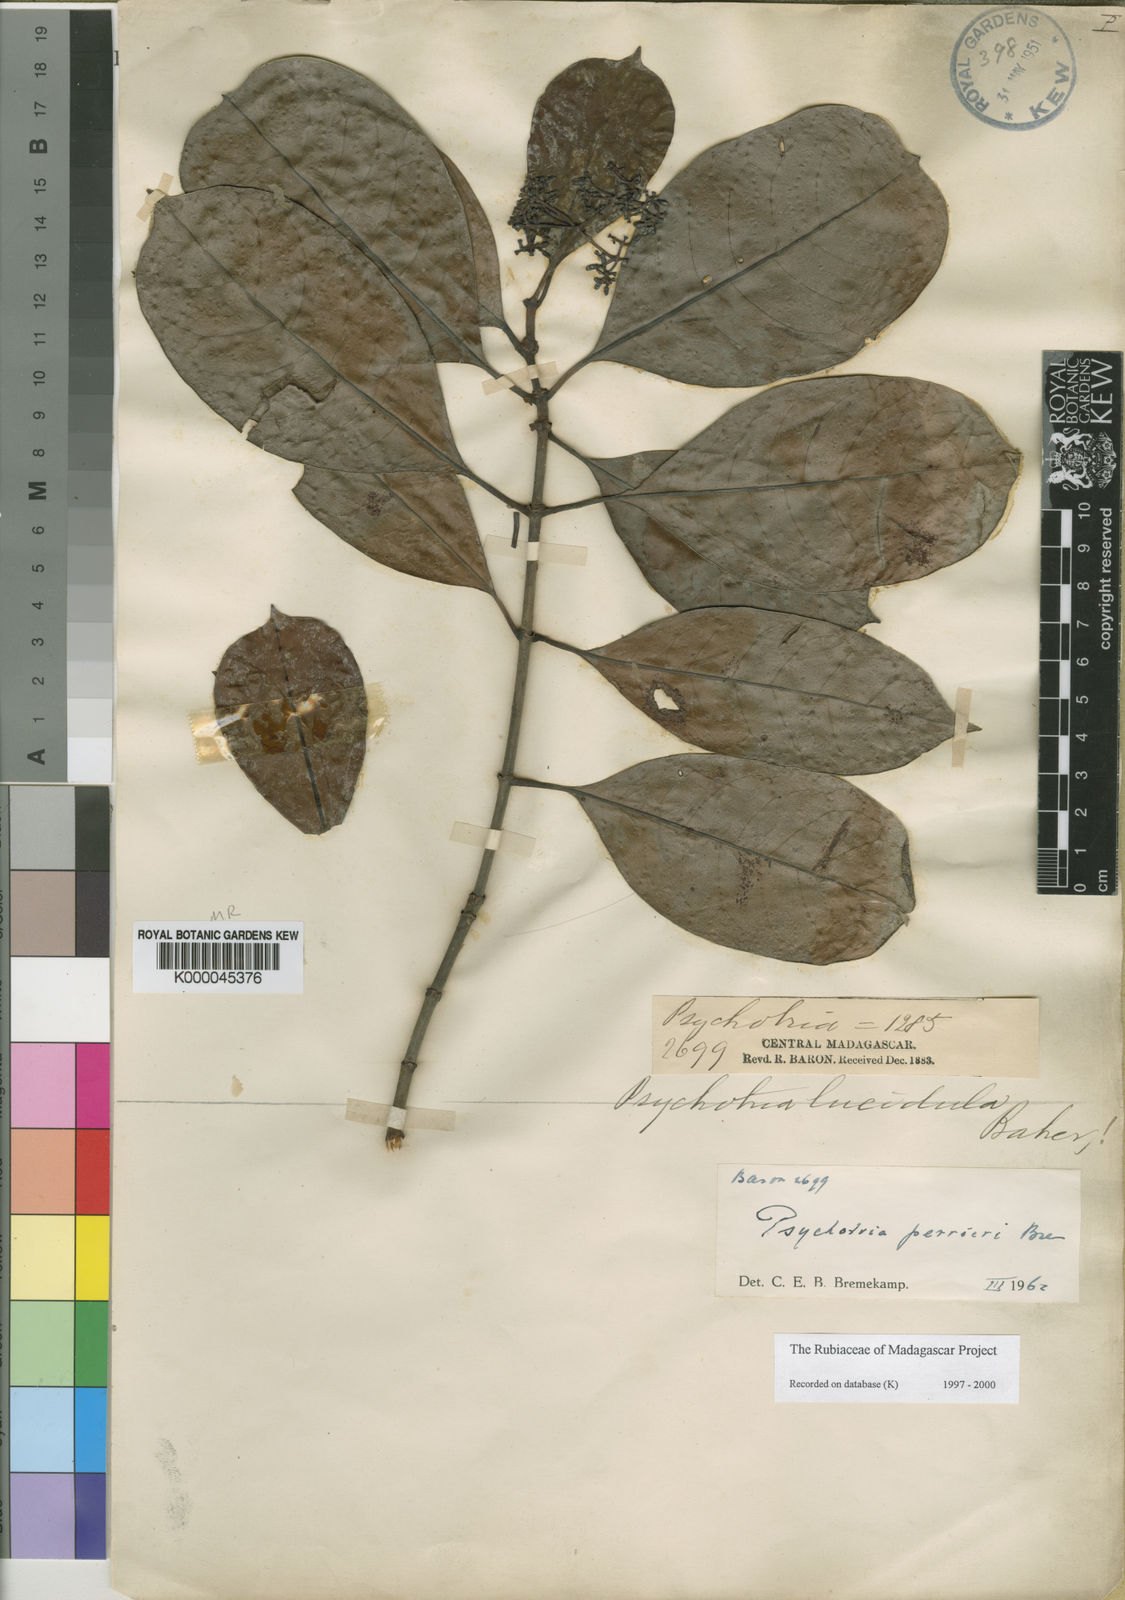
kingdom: Plantae
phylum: Tracheophyta
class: Magnoliopsida
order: Gentianales
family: Rubiaceae
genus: Psychotria
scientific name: Psychotria perrieri
